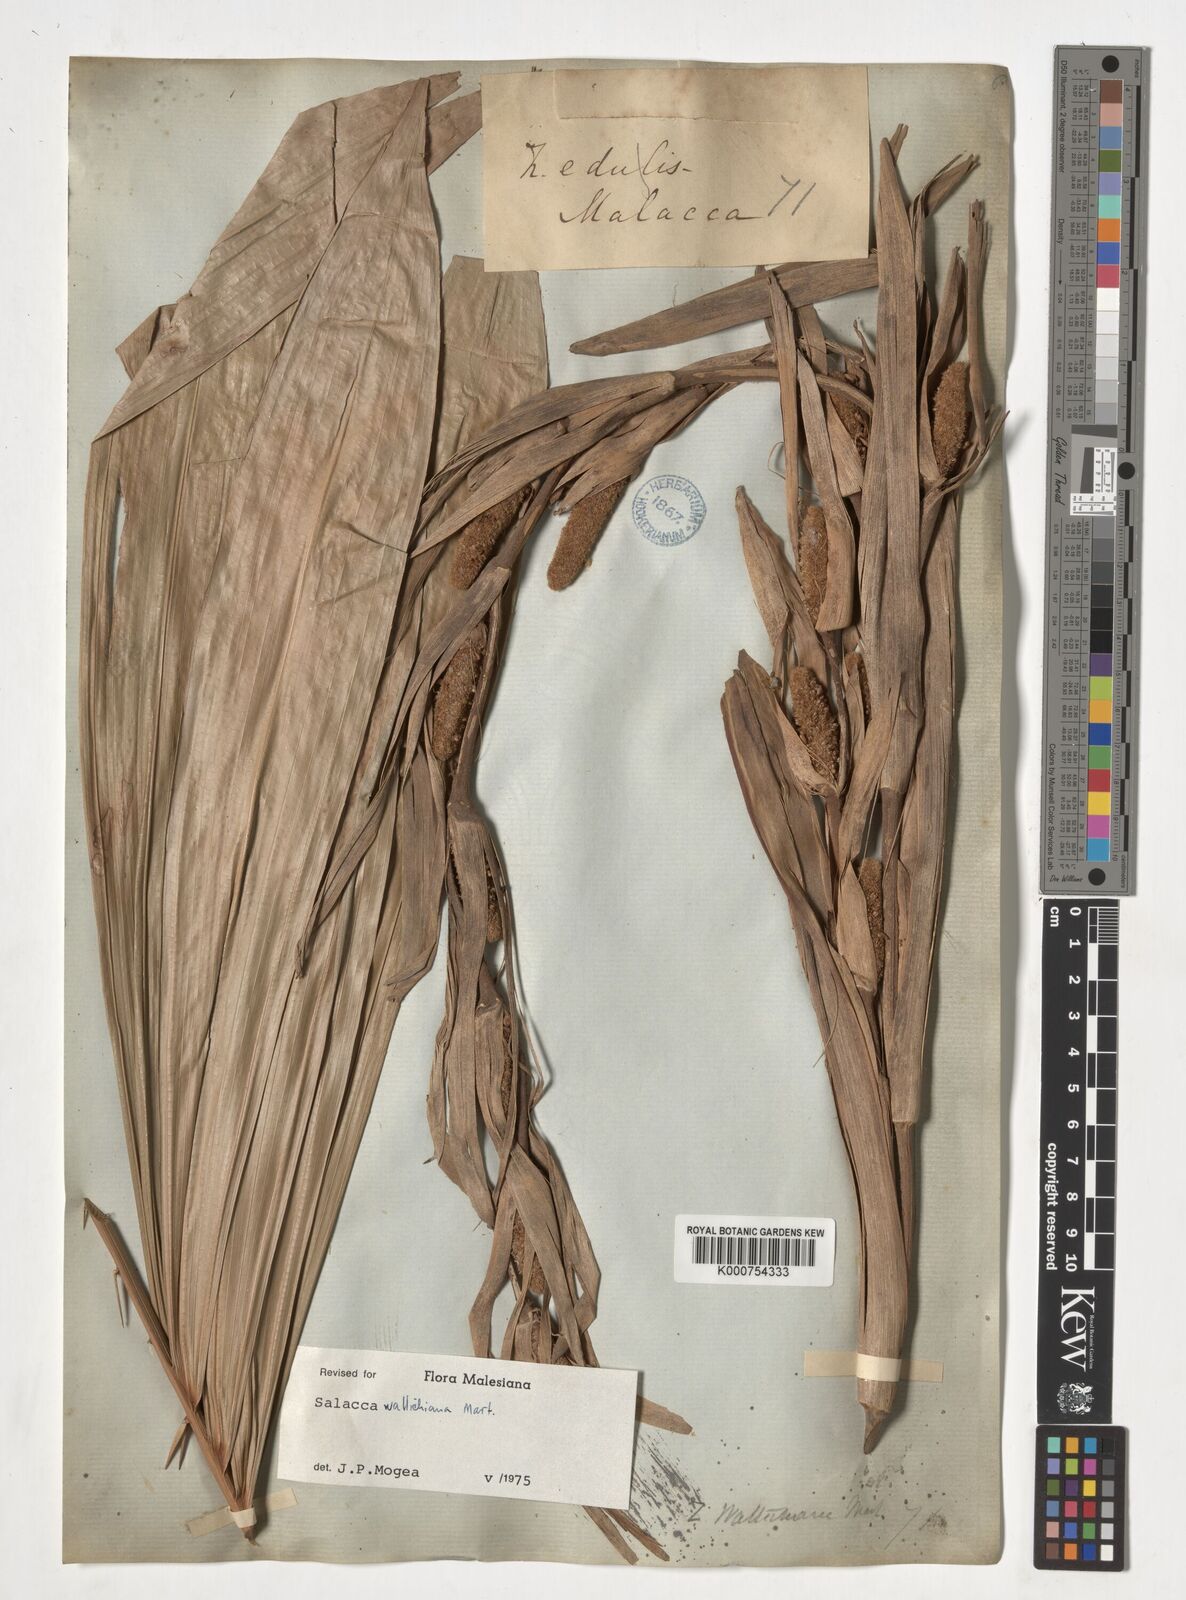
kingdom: Plantae
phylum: Tracheophyta
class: Liliopsida
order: Arecales
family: Arecaceae
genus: Salacca
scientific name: Salacca wallichiana
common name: Rakum palm
